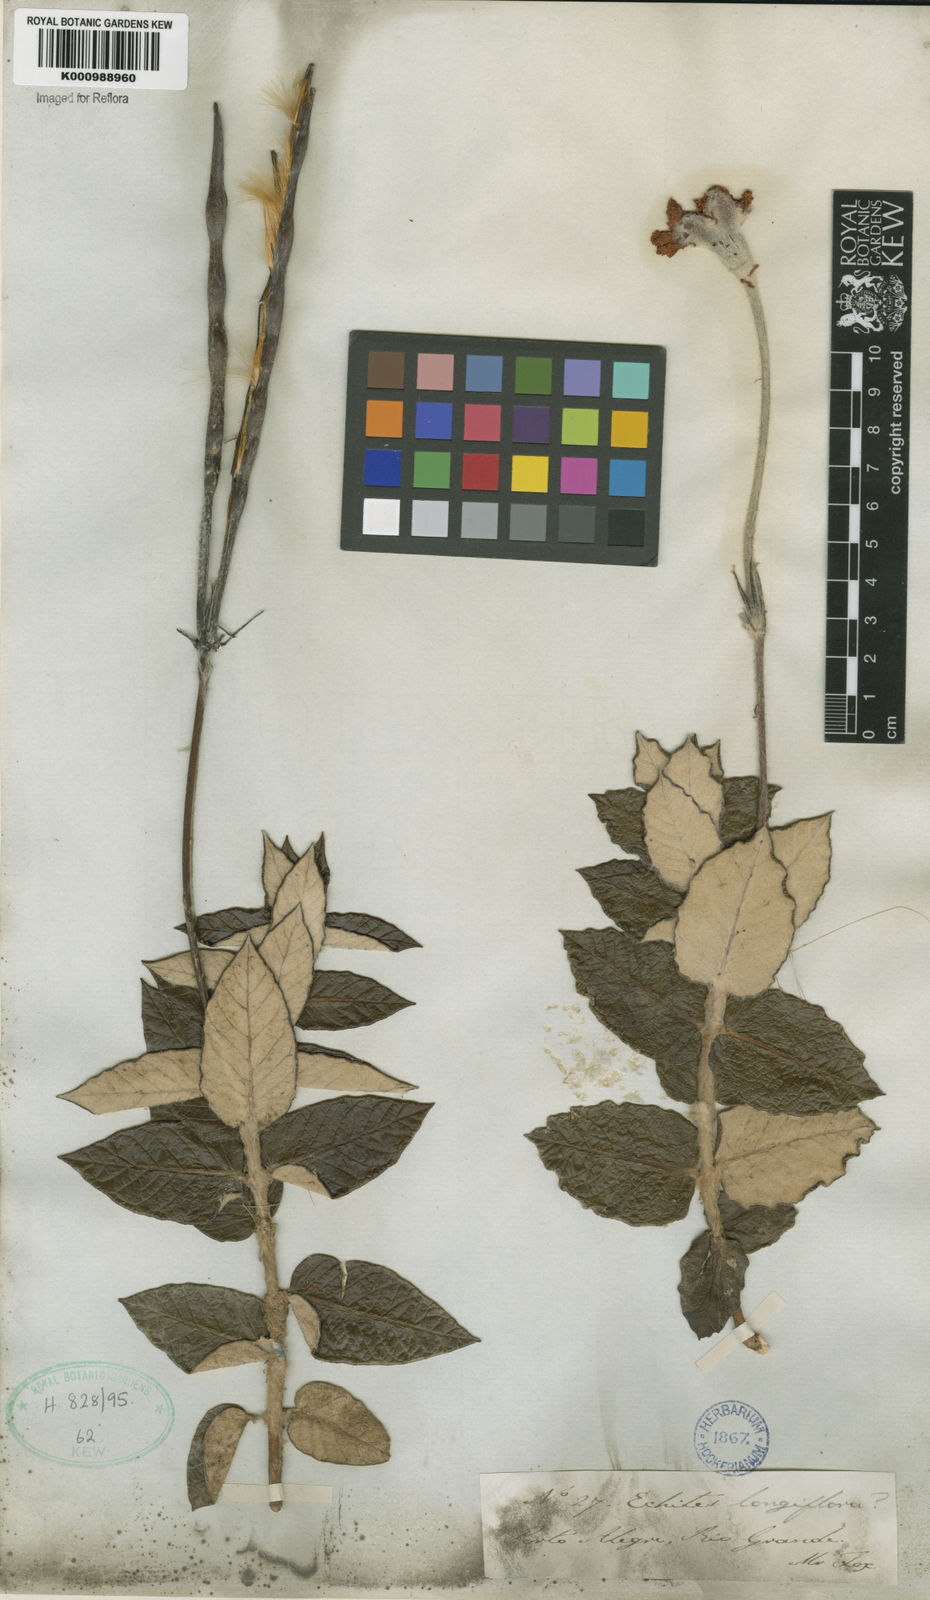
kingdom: Plantae
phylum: Tracheophyta
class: Magnoliopsida
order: Gentianales
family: Apocynaceae
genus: Mandevilla
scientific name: Mandevilla longiflora
